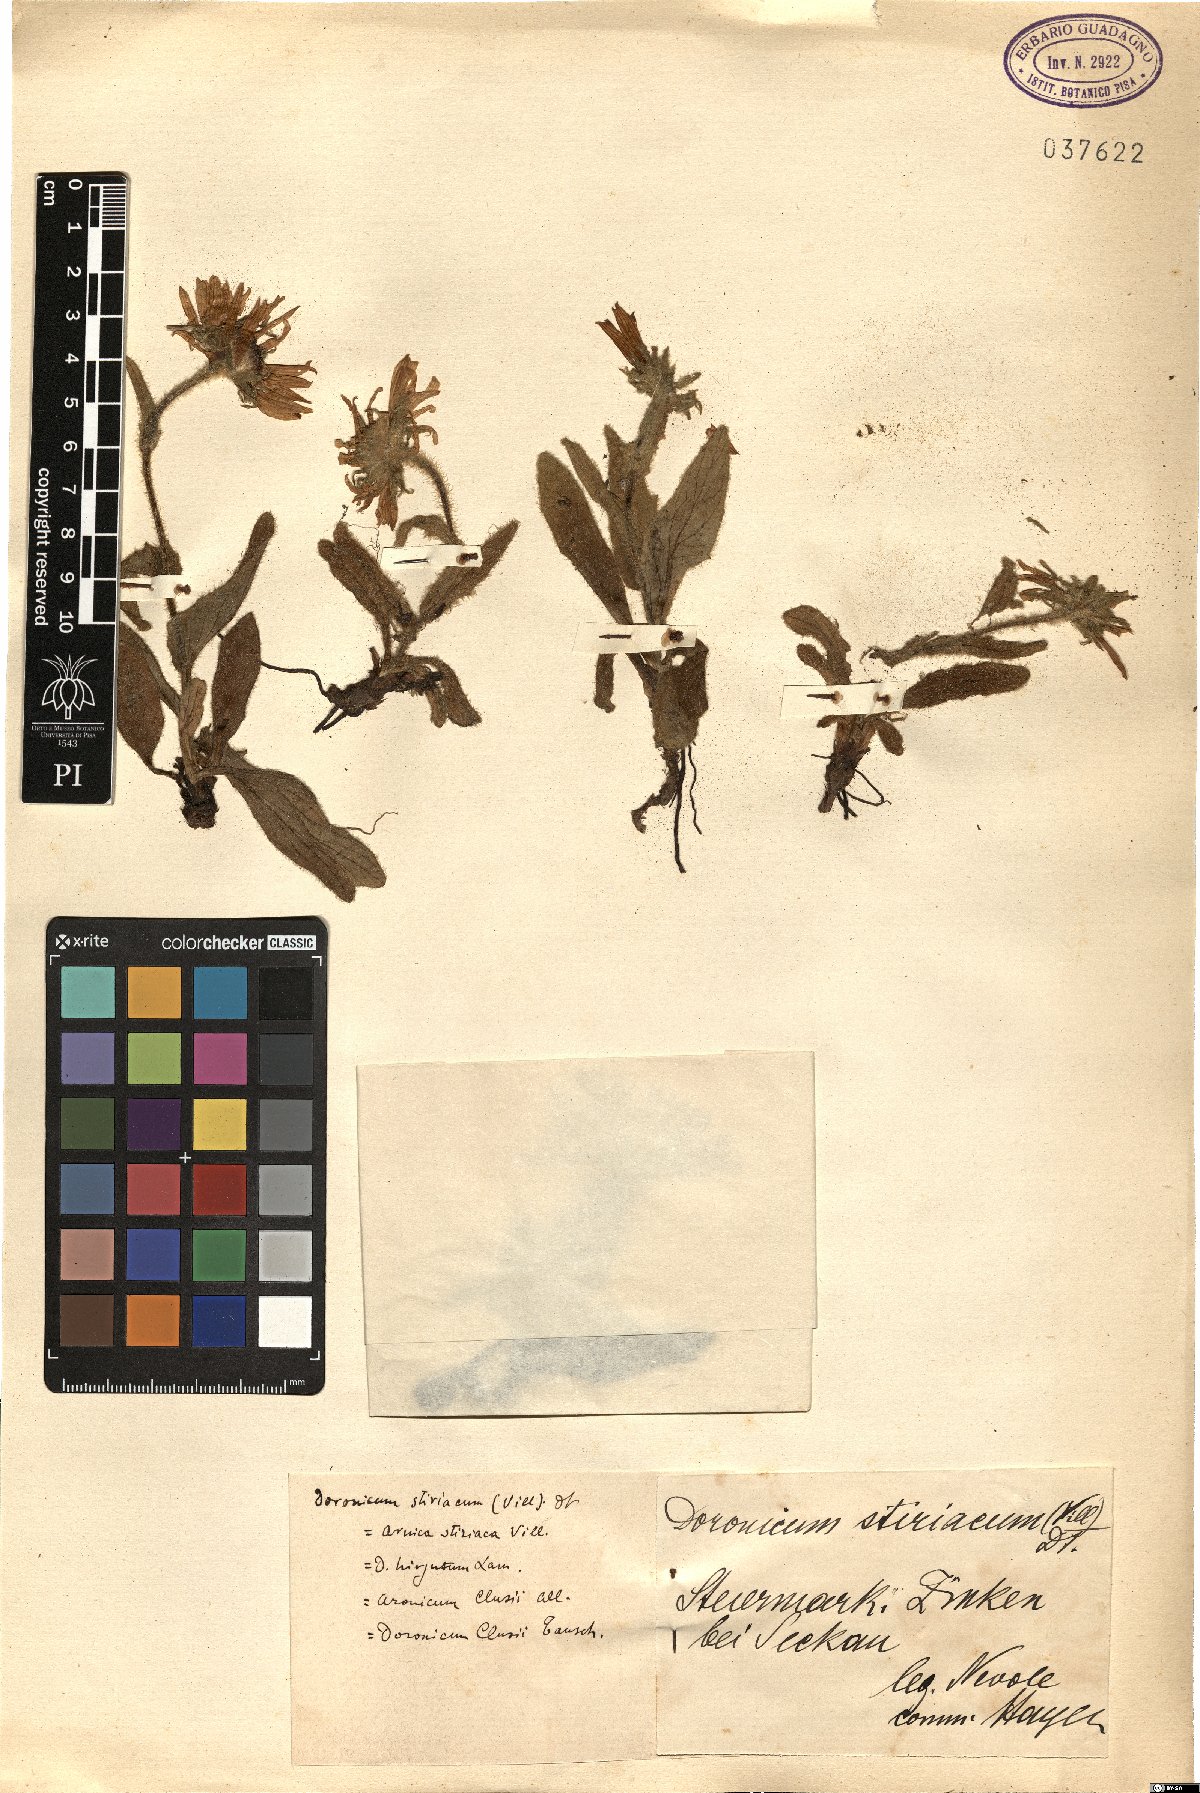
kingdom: Plantae
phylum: Tracheophyta
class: Magnoliopsida
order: Asterales
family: Asteraceae
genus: Doronicum
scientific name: Doronicum clusii
